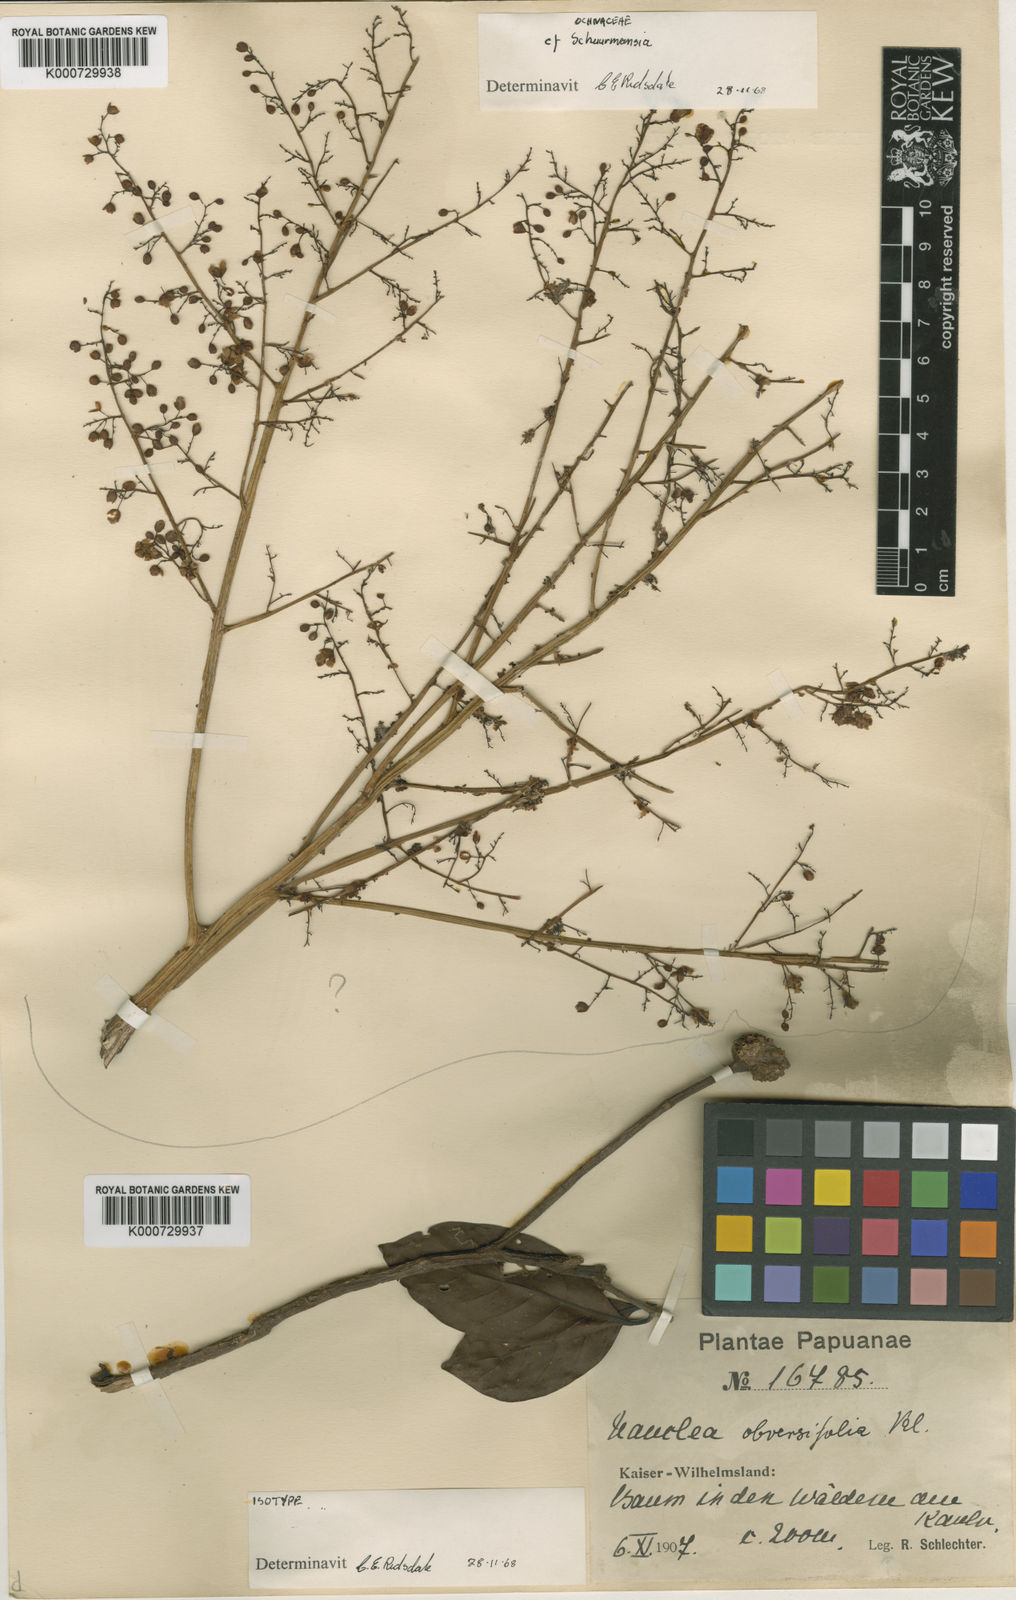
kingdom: Plantae
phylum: Tracheophyta
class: Magnoliopsida
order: Gentianales
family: Rubiaceae
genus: Neonauclea
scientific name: Neonauclea obversifolia
